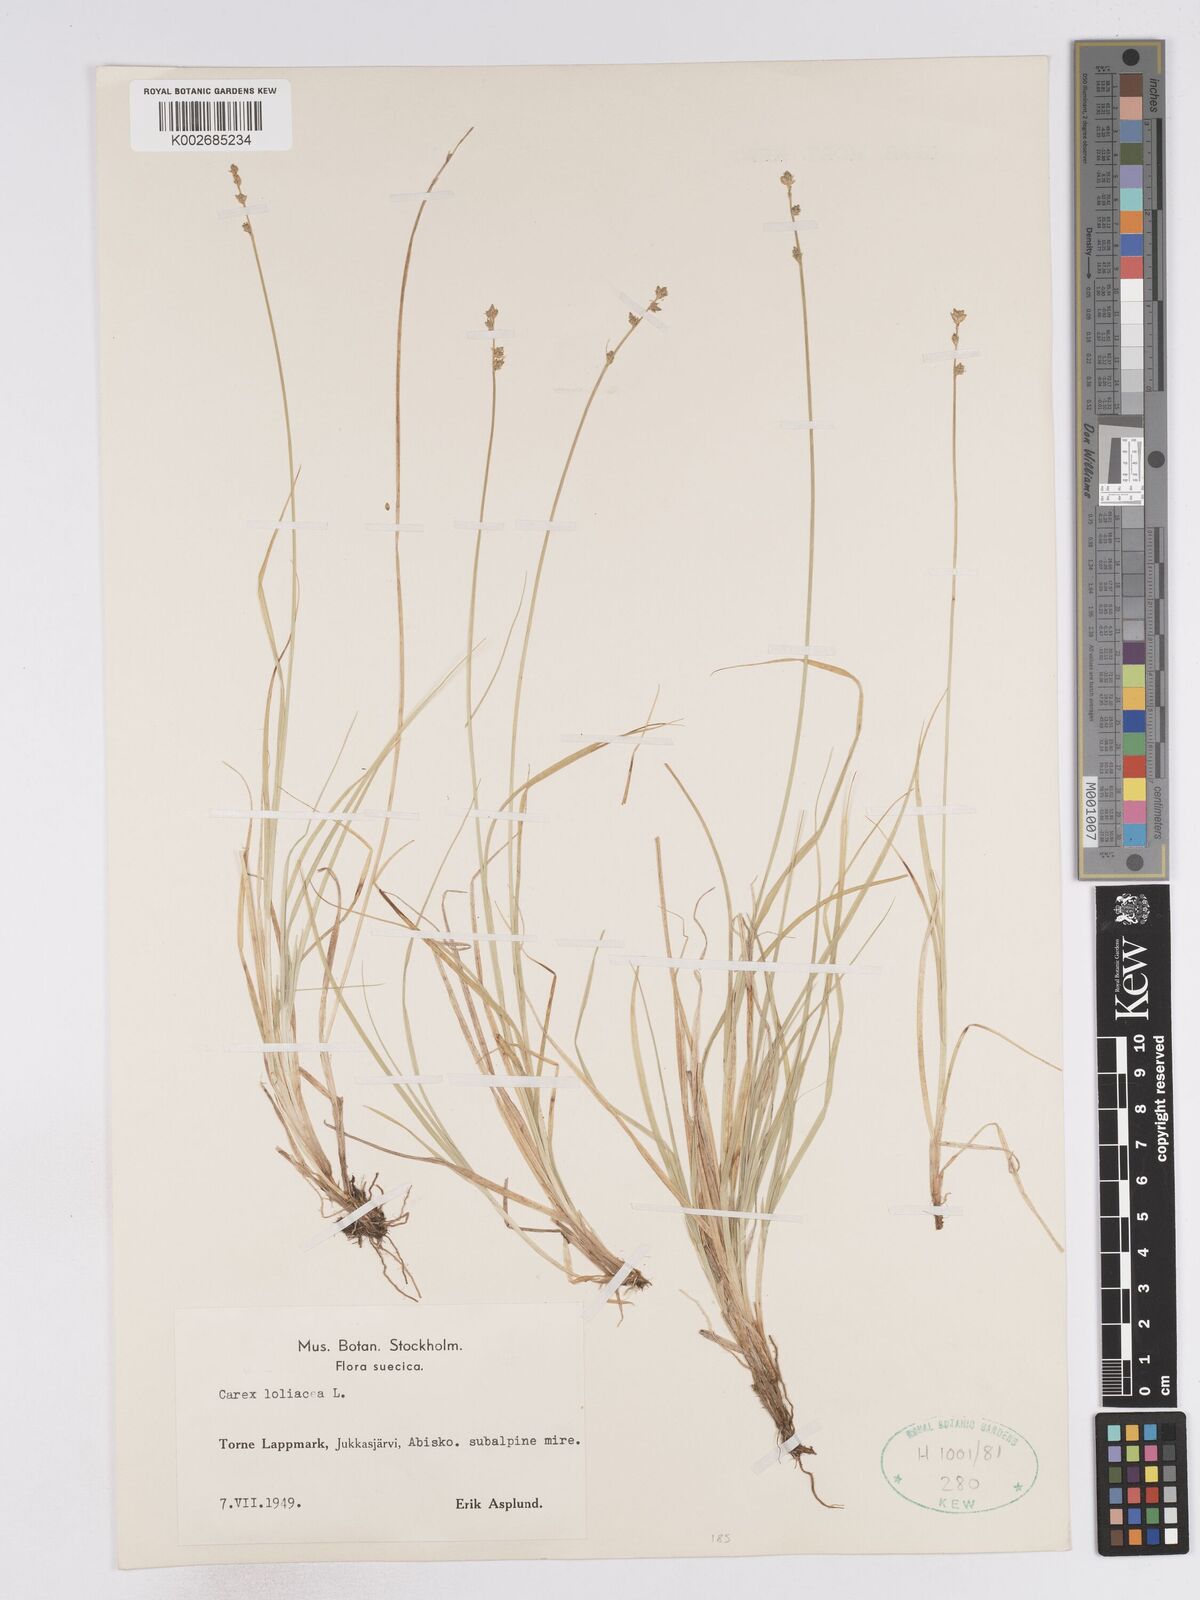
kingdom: Plantae
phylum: Tracheophyta
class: Liliopsida
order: Poales
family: Cyperaceae
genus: Carex
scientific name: Carex loliacea
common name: Ryegrass sedge
